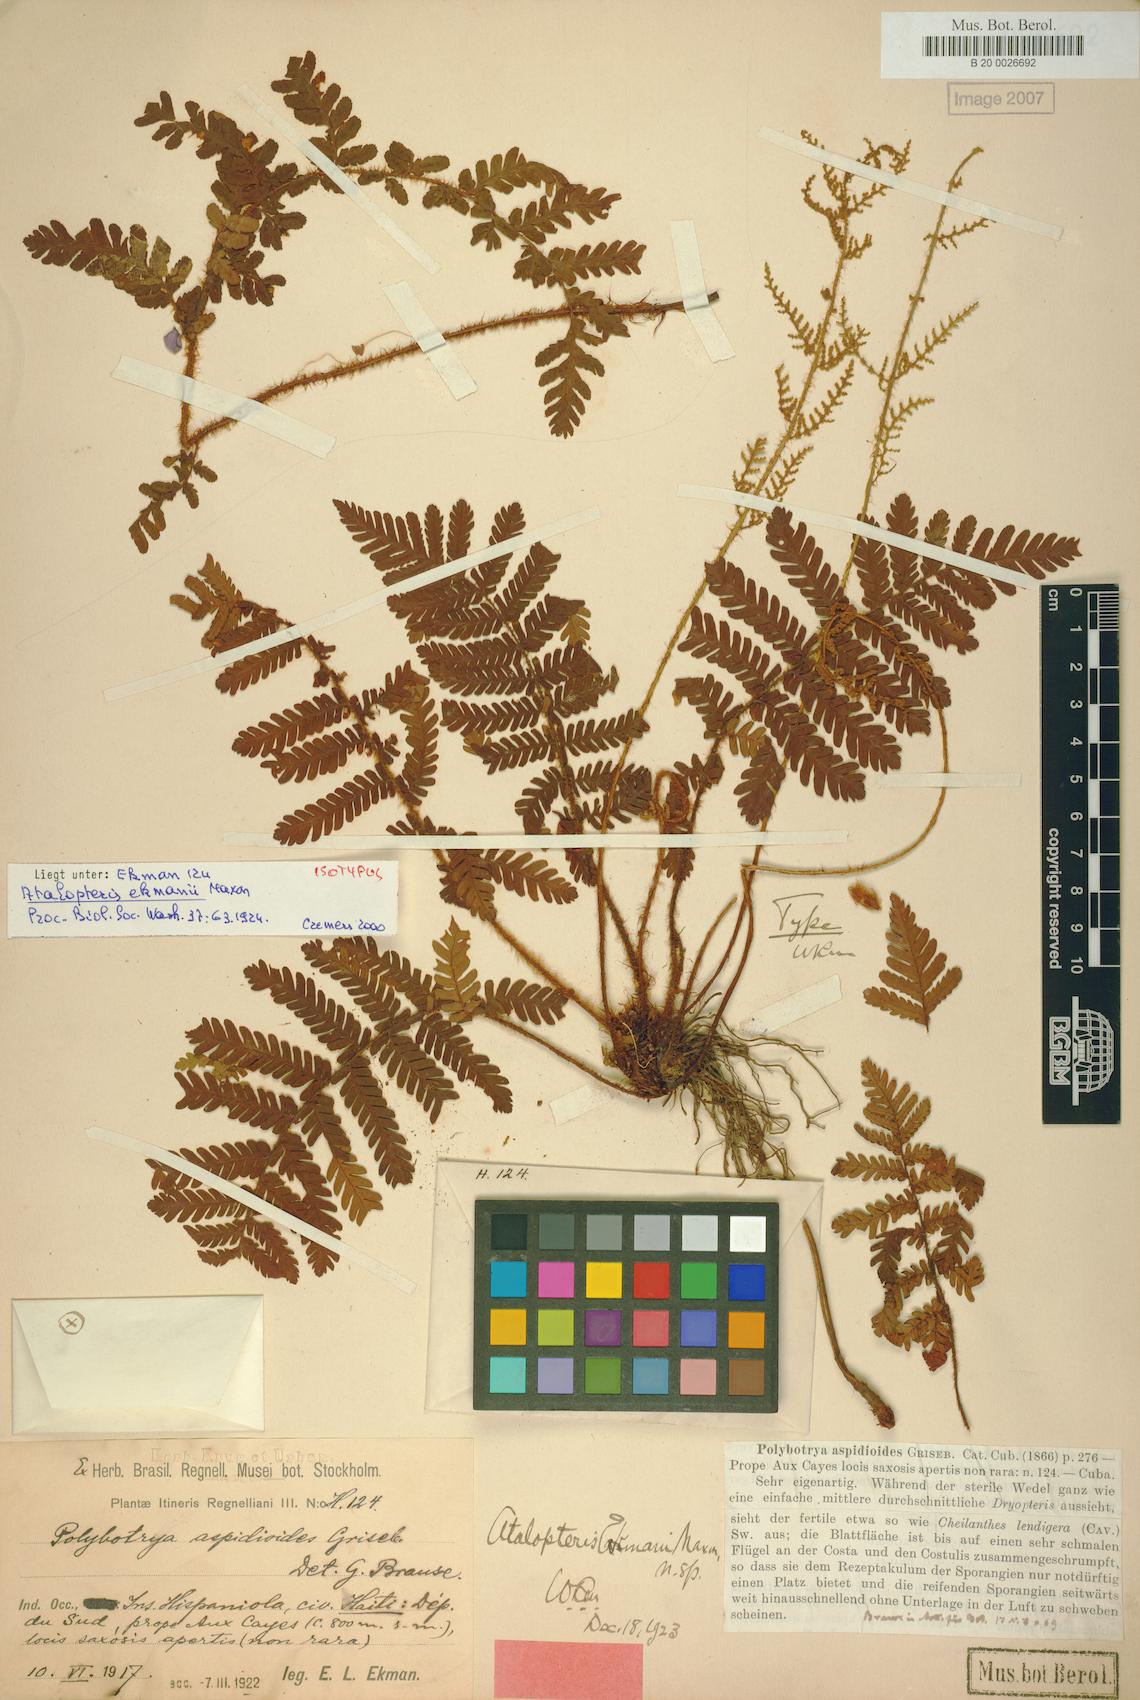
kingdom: Plantae
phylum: Tracheophyta
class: Polypodiopsida
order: Polypodiales
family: Dryopteridaceae
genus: Atalopteris
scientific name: Atalopteris aspidioides
